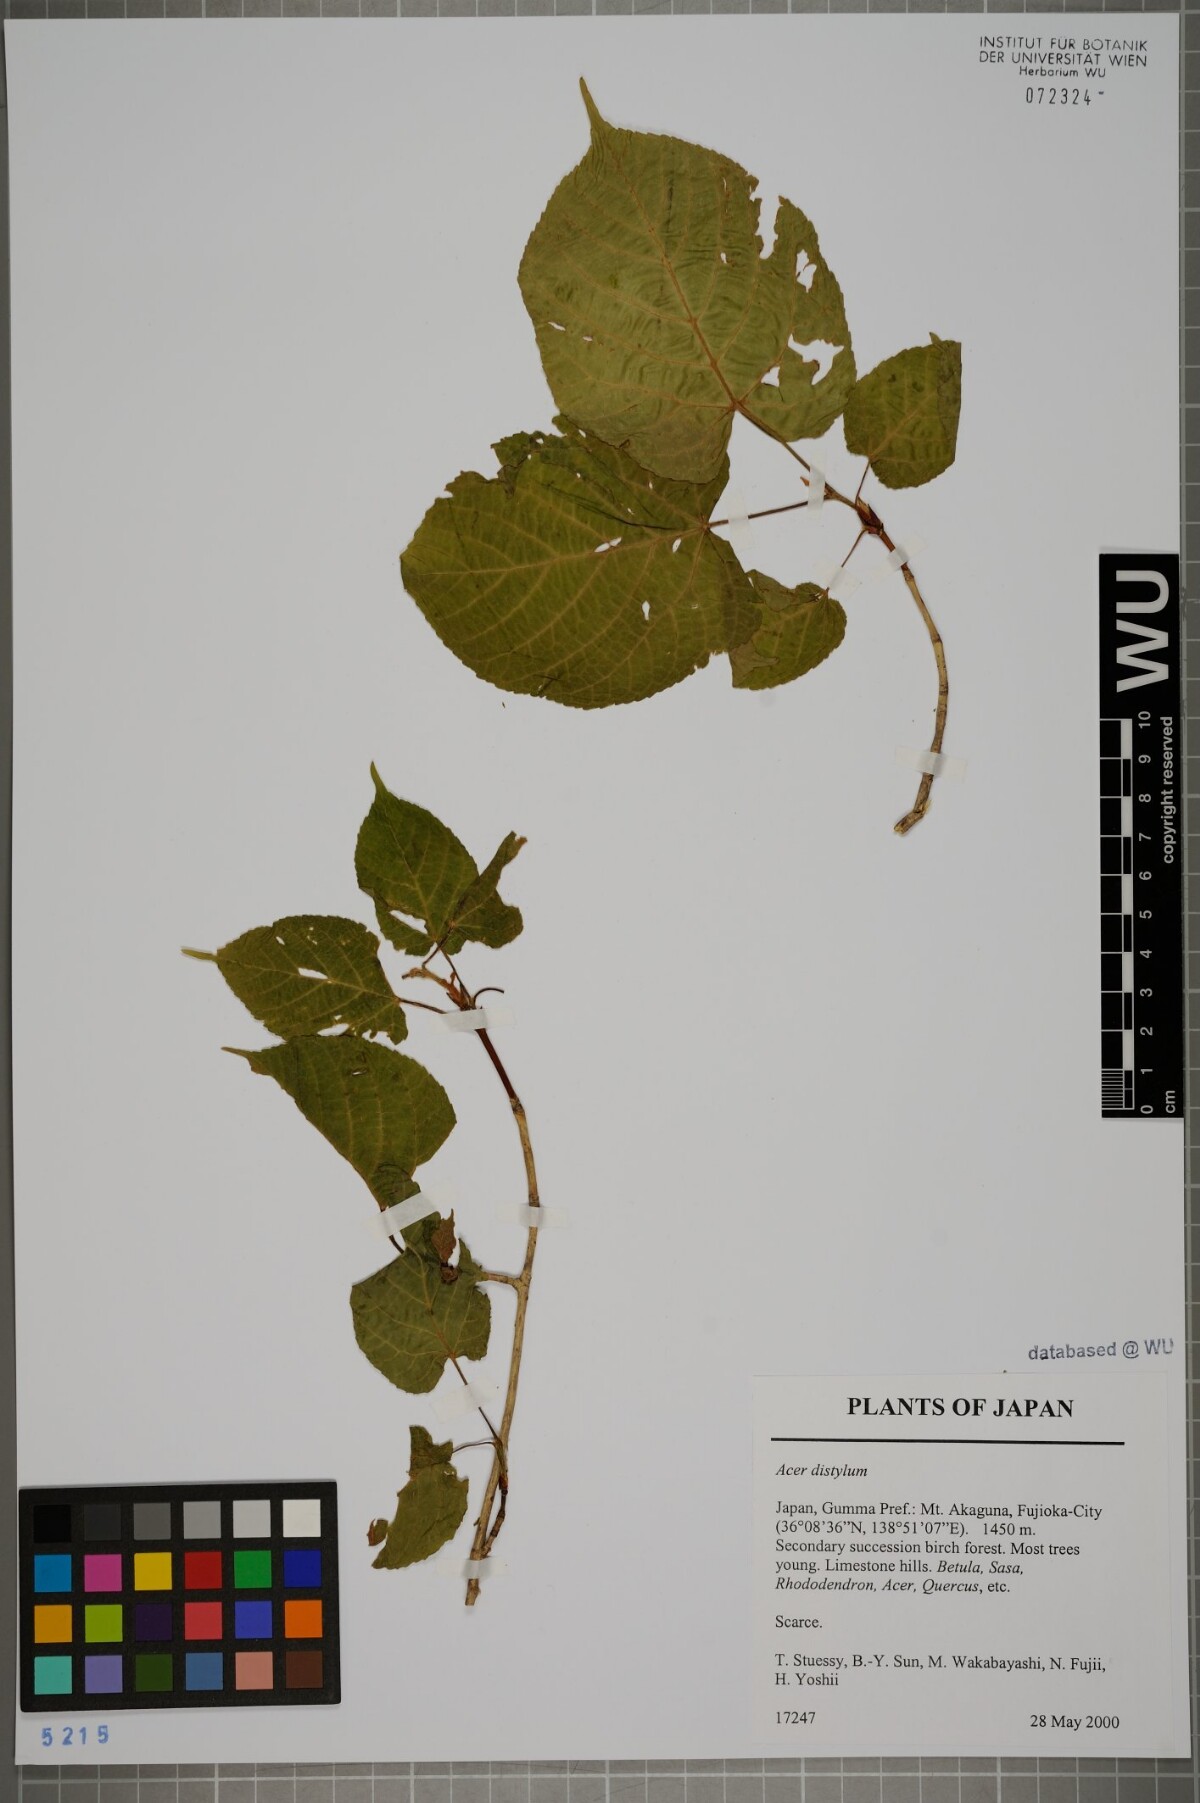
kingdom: Plantae
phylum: Tracheophyta
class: Magnoliopsida
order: Sapindales
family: Sapindaceae
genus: Acer
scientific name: Acer distylum
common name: Lime-leaved maple
